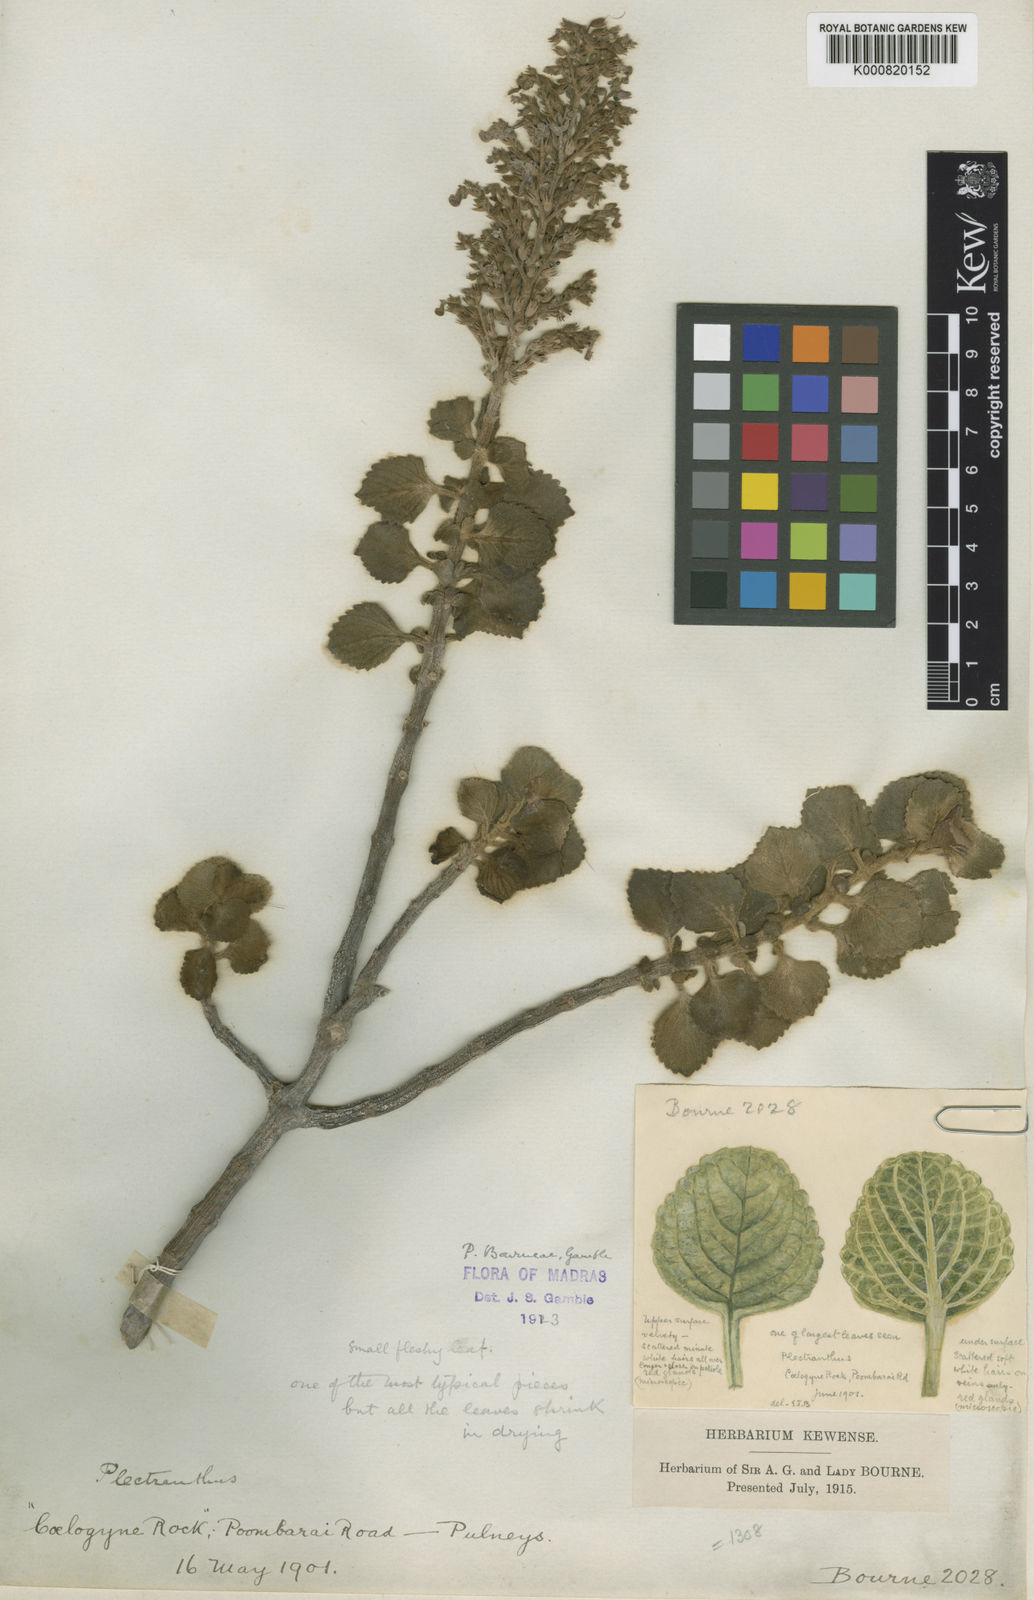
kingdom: Plantae
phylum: Tracheophyta
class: Magnoliopsida
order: Lamiales
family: Lamiaceae
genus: Coleus
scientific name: Coleus bourneae
